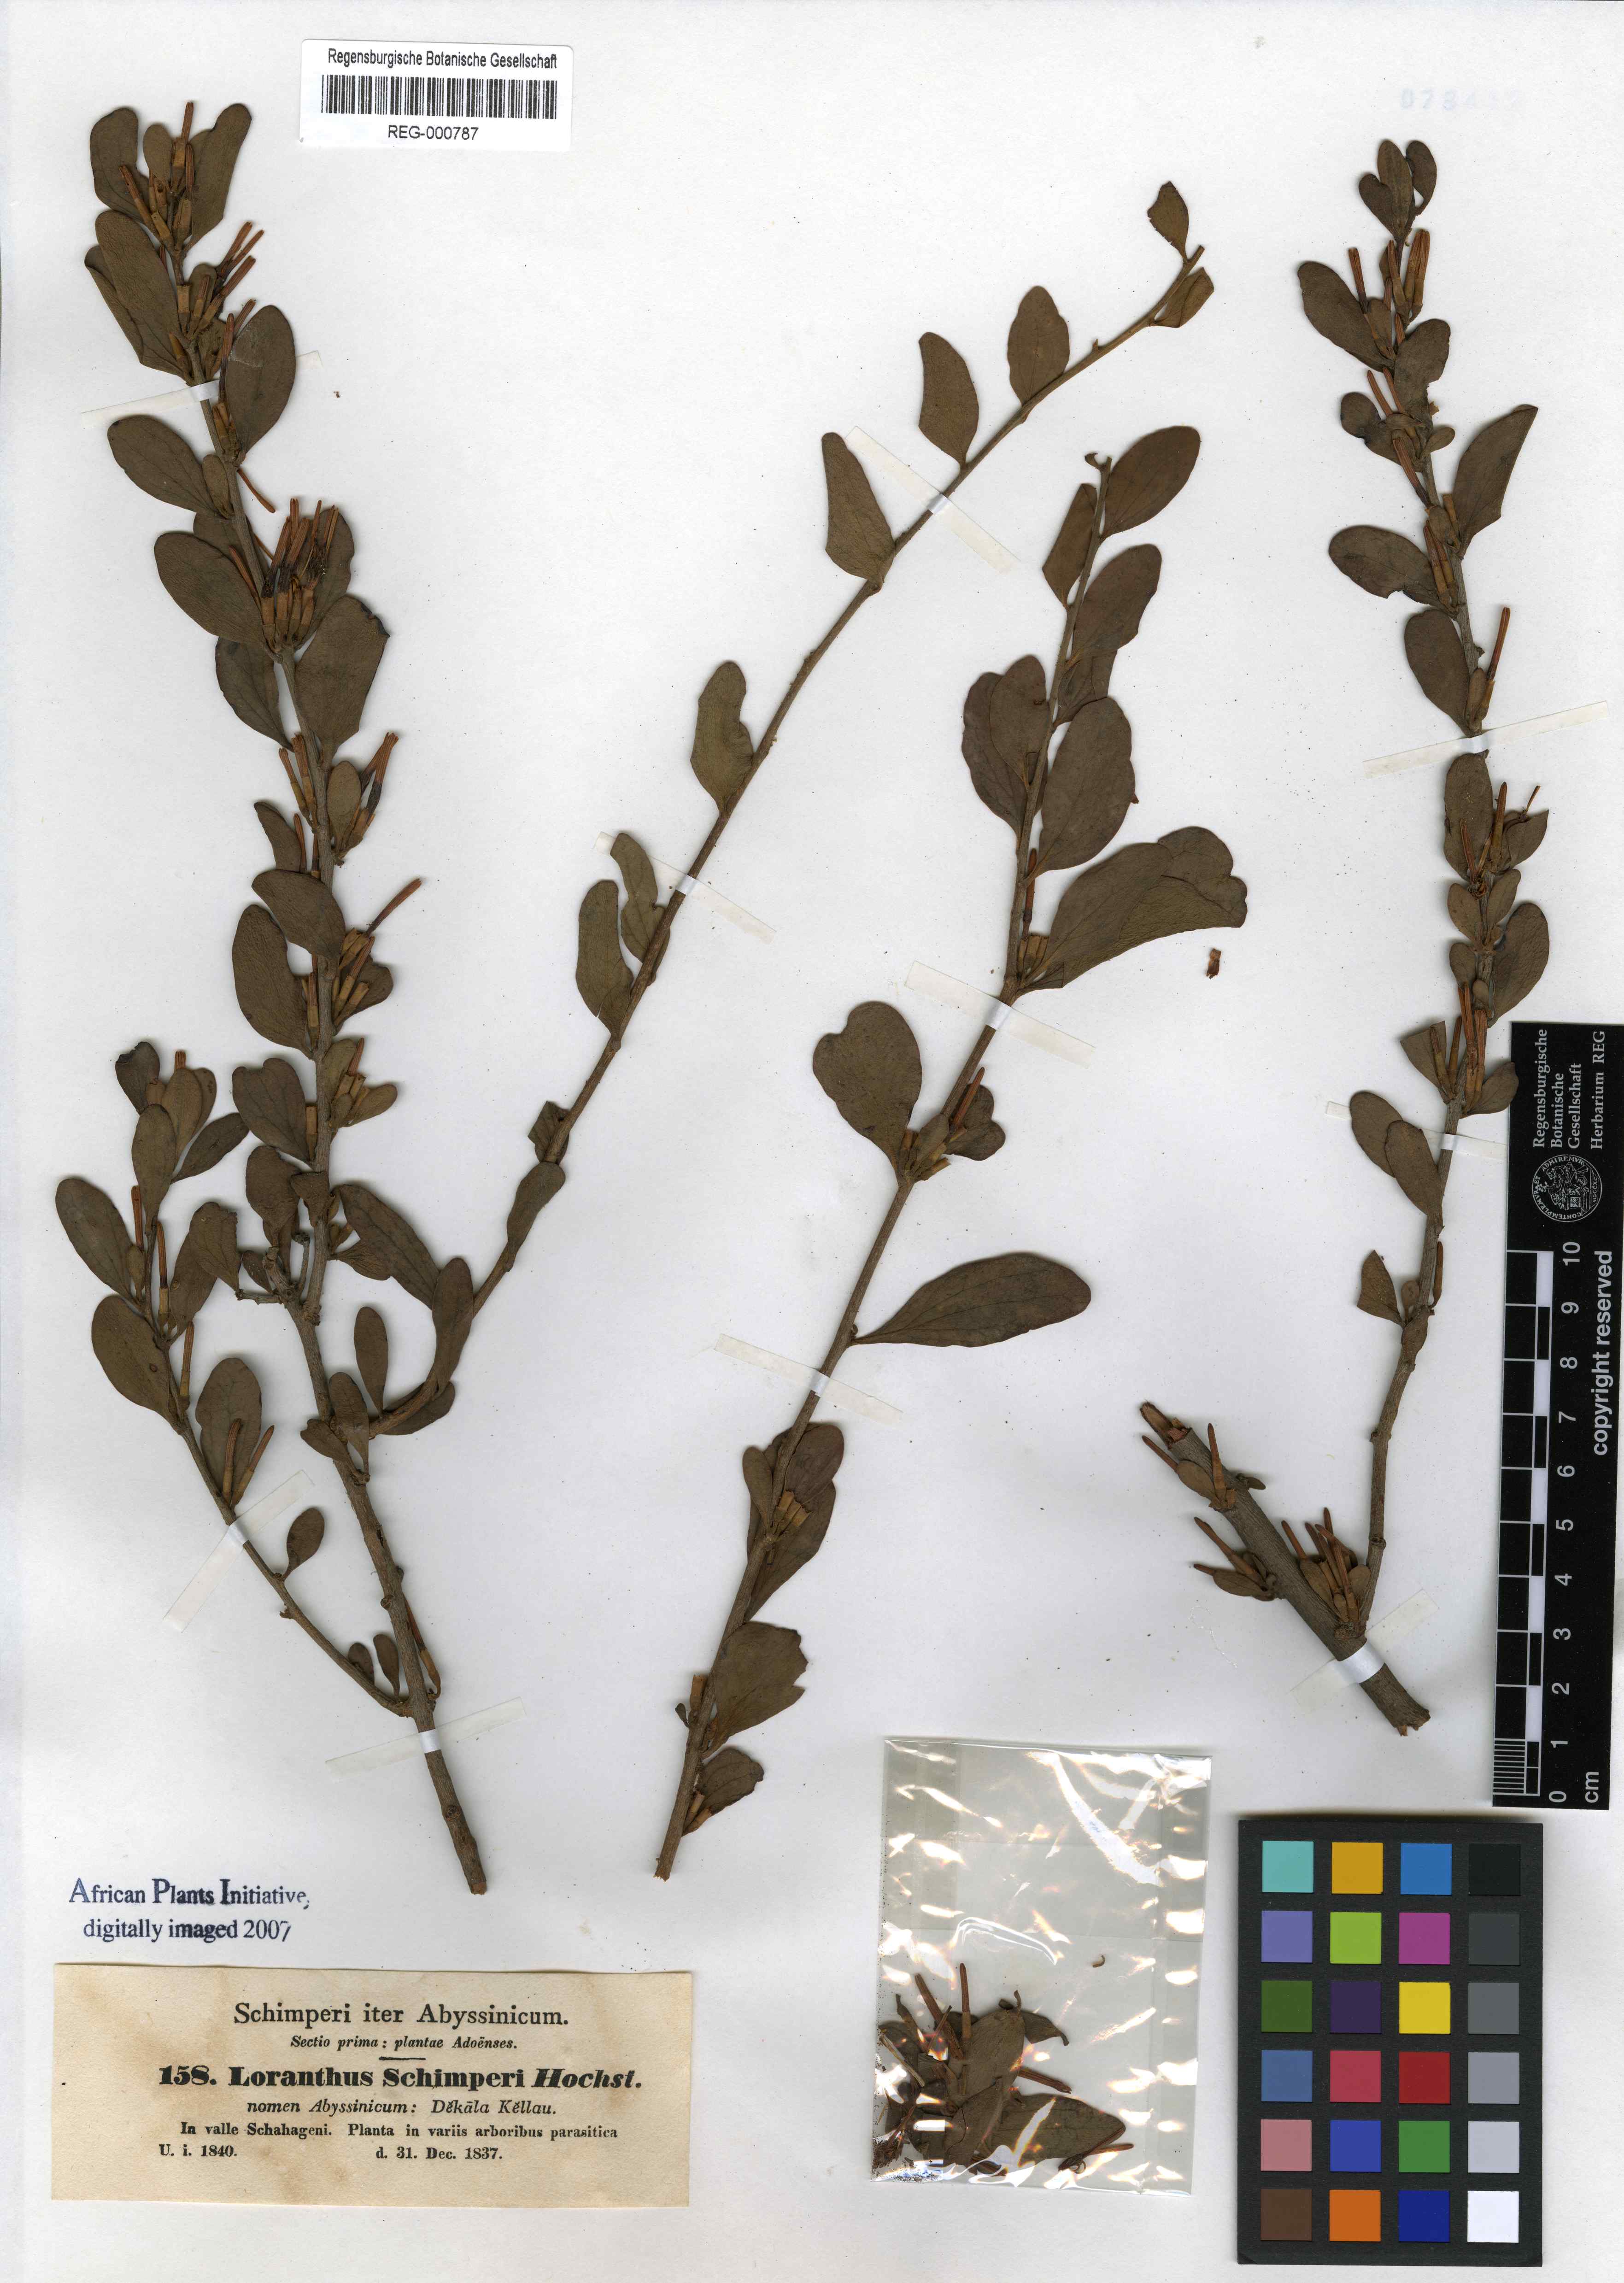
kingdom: Plantae
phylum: Tracheophyta
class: Magnoliopsida
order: Santalales
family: Loranthaceae
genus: Loranthus
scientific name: Loranthus schimperi
